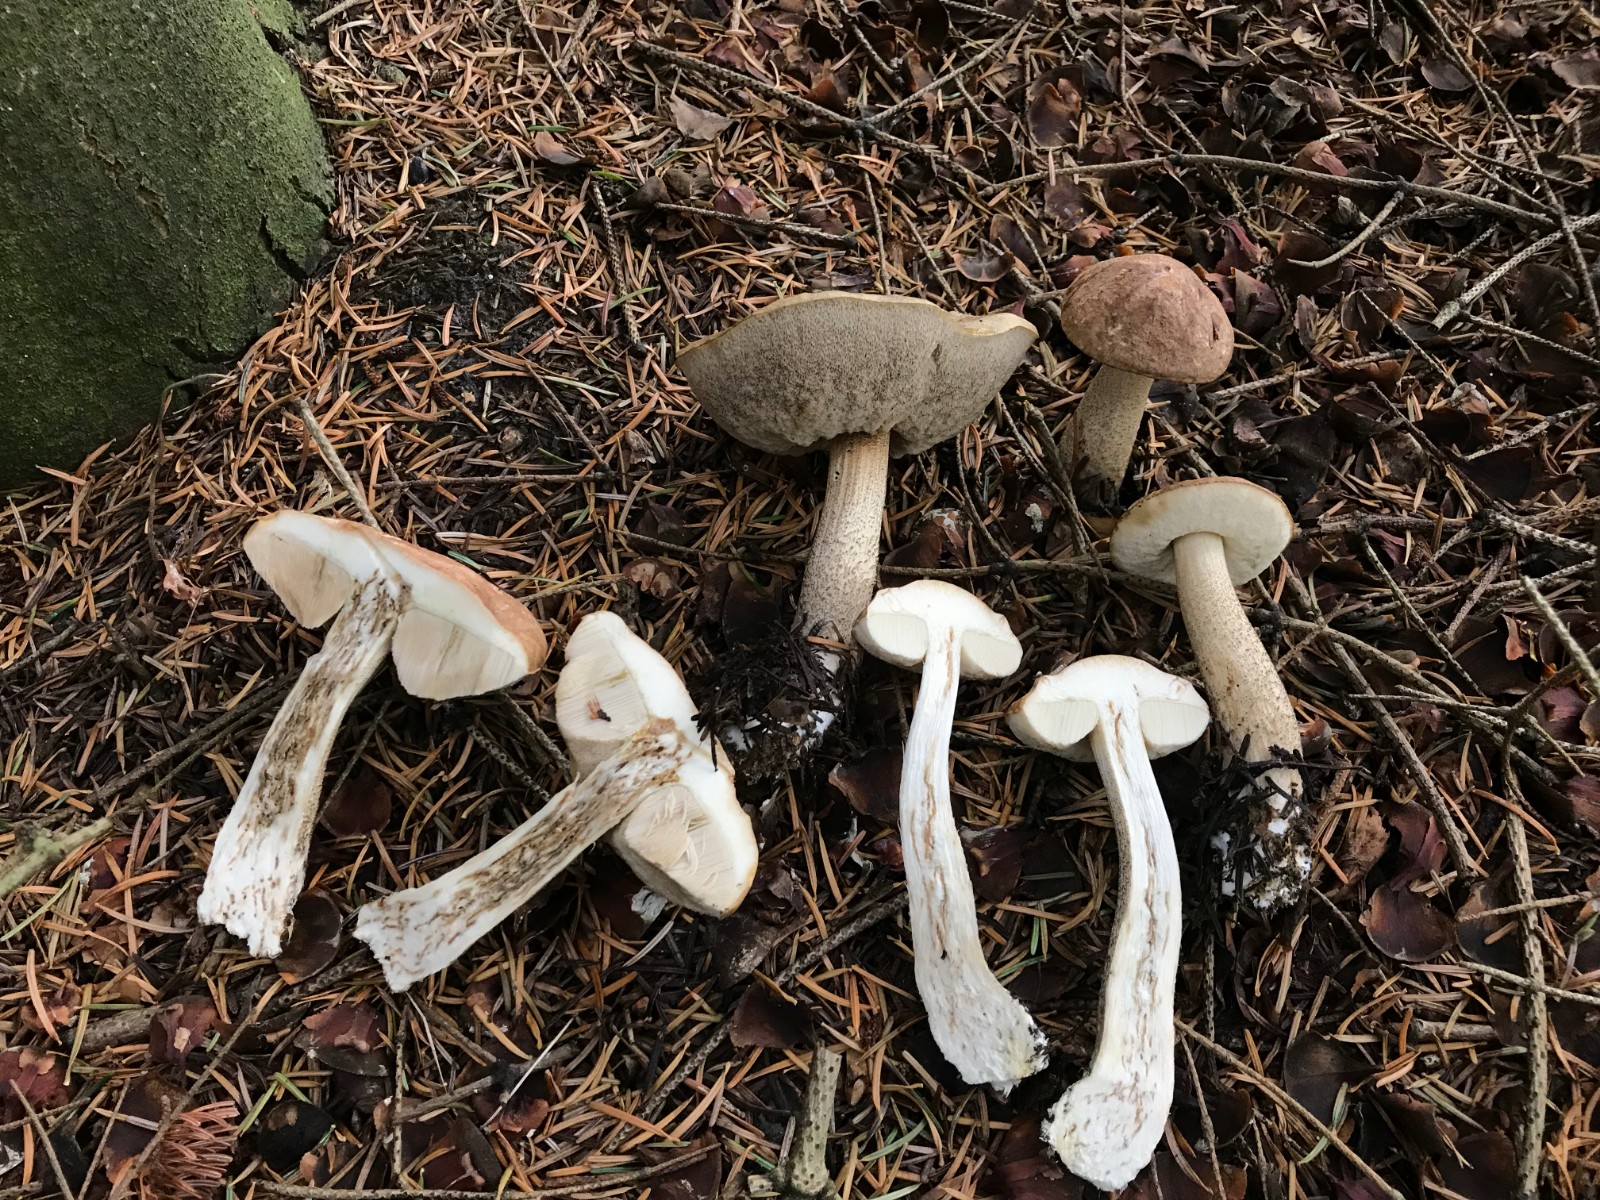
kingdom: Fungi
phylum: Basidiomycota
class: Agaricomycetes
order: Boletales
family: Boletaceae
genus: Leccinum
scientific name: Leccinum scabrum
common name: brun skælrørhat
